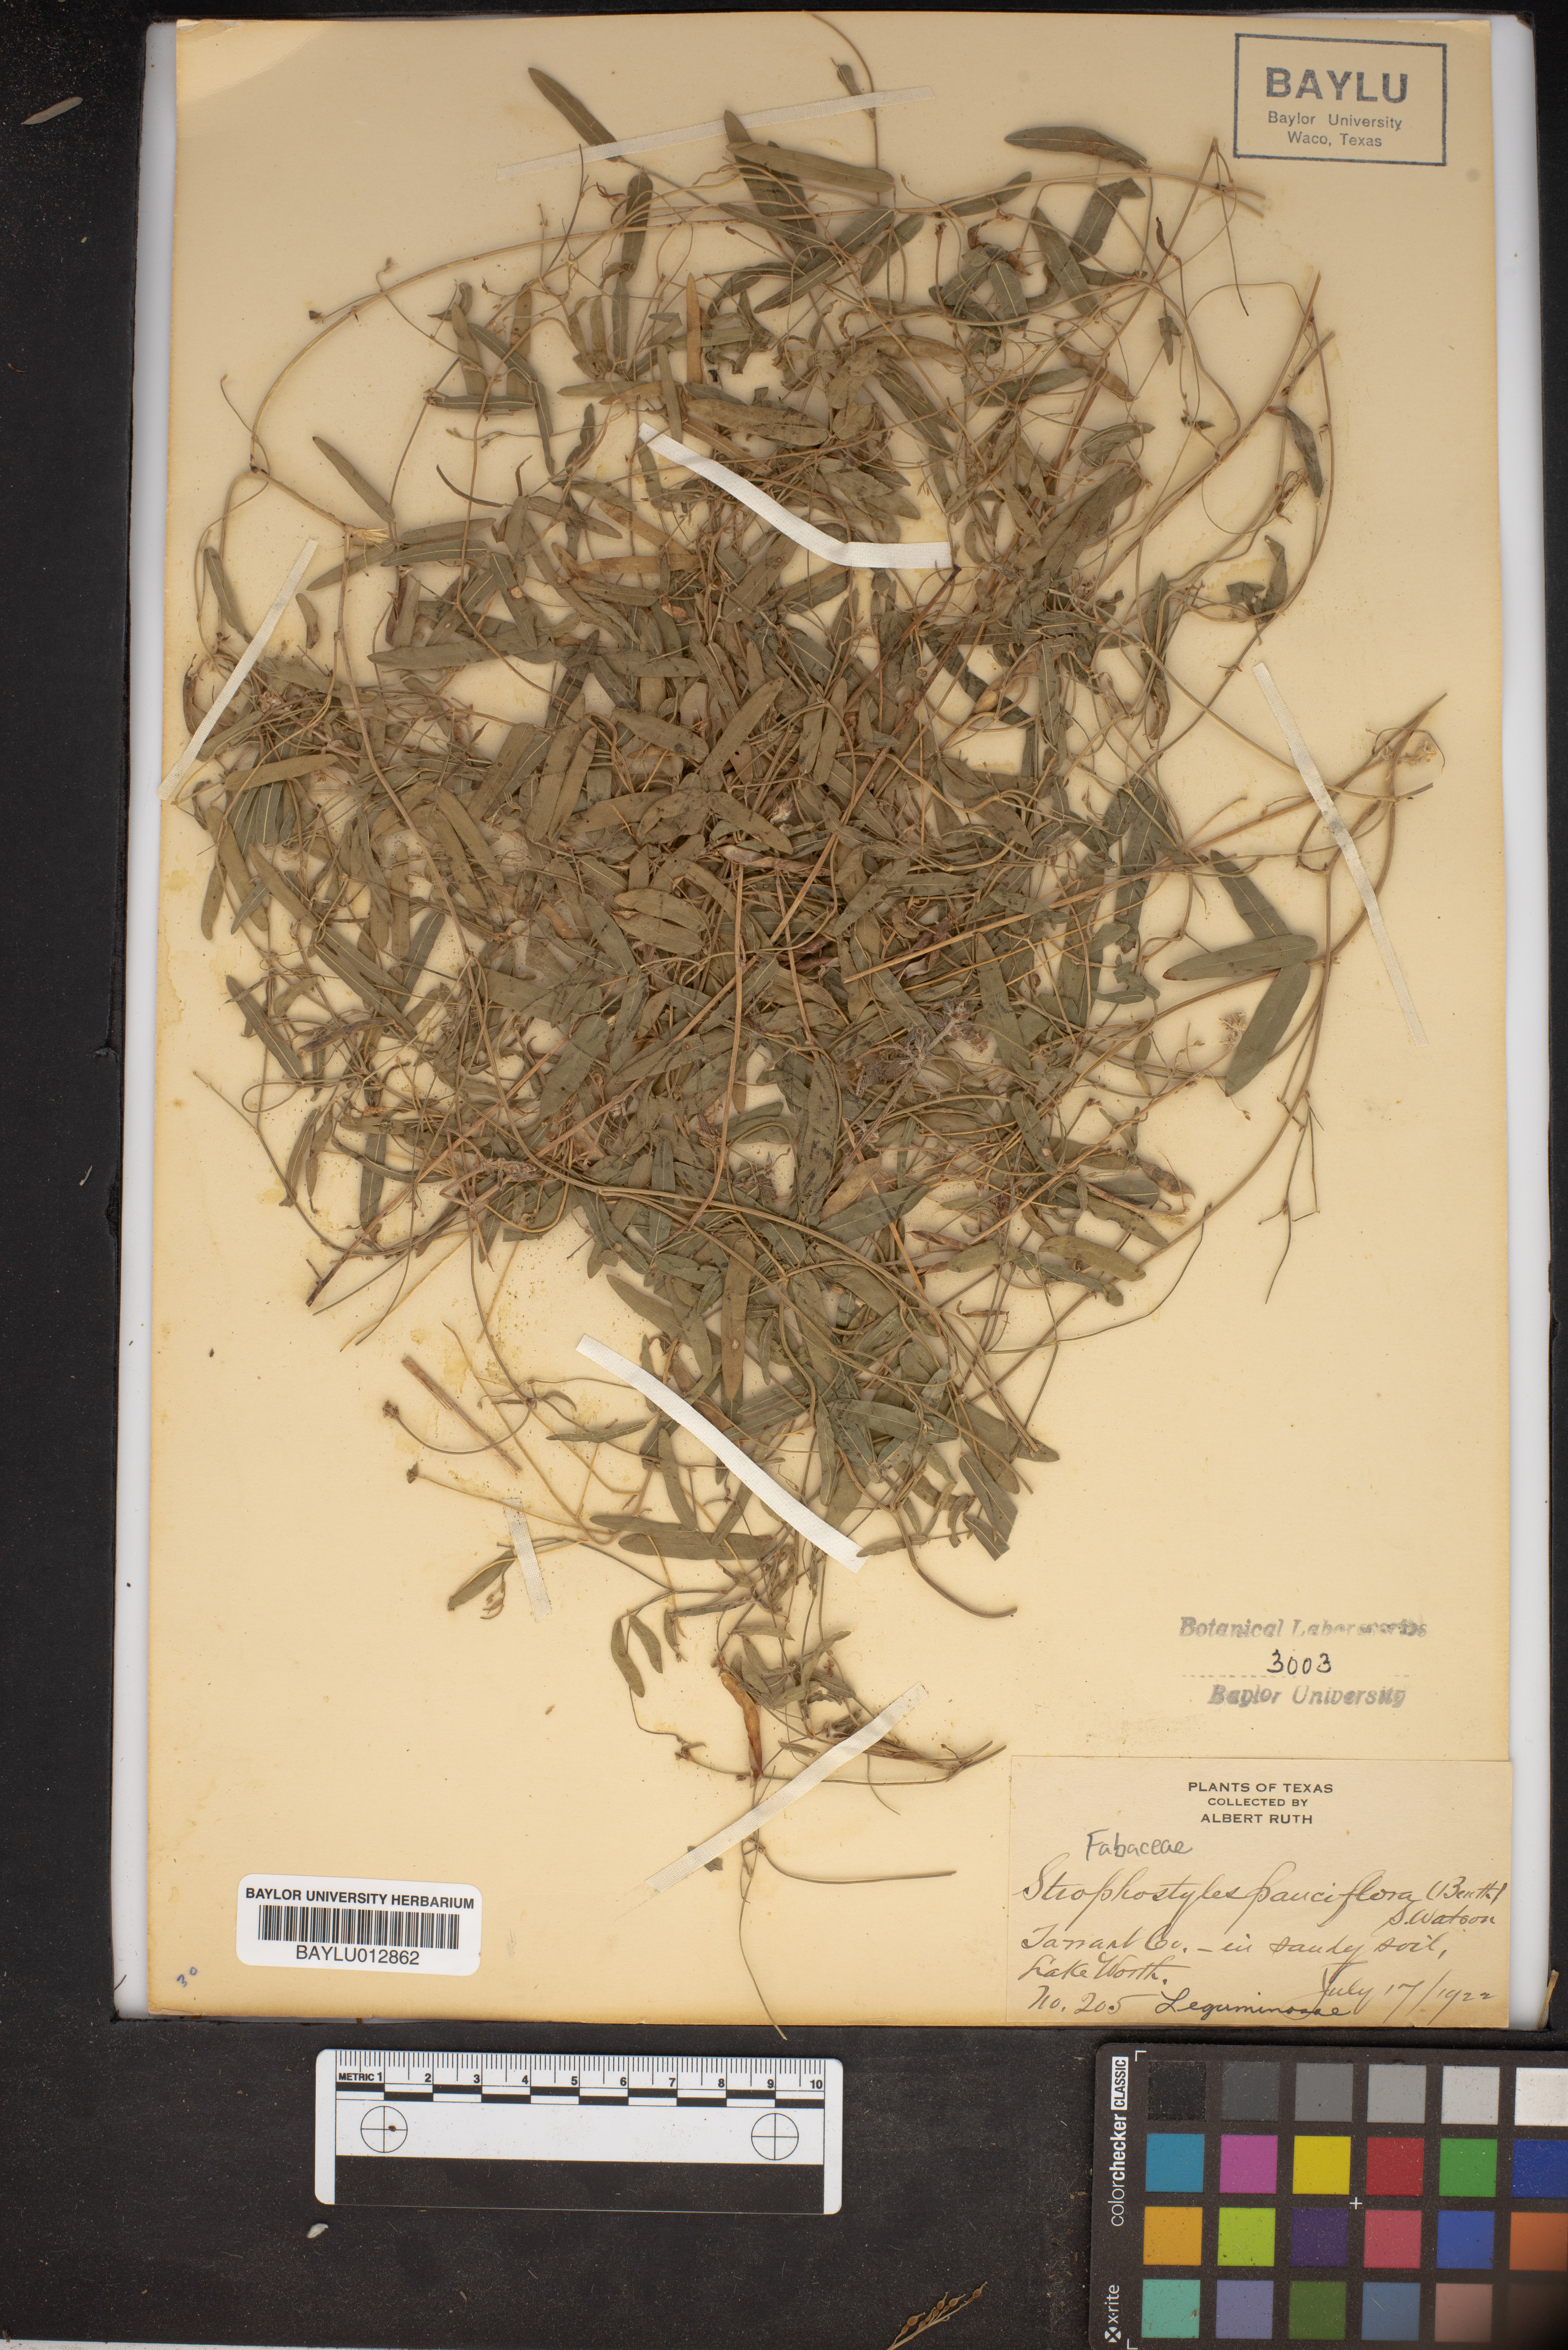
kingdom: Plantae
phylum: Tracheophyta
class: Magnoliopsida
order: Fabales
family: Fabaceae
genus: Strophostyles
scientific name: Strophostyles leiosperma
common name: Smooth-seed wild bean
